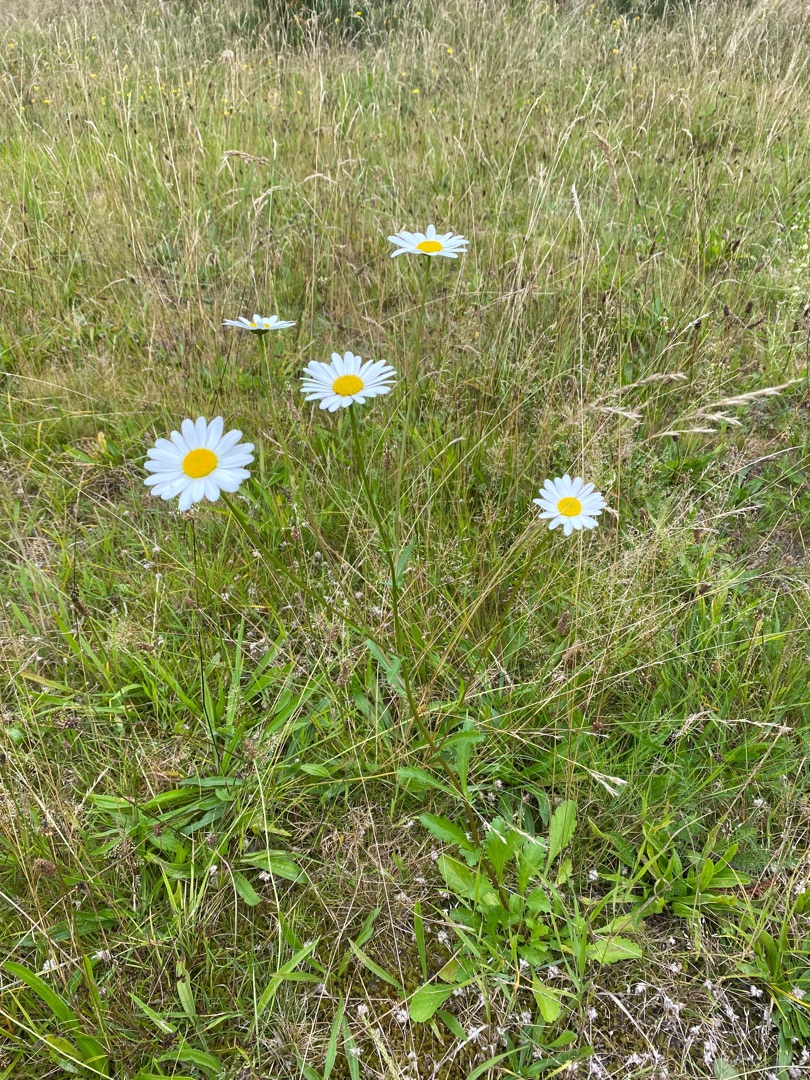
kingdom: Plantae
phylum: Tracheophyta
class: Magnoliopsida
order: Asterales
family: Asteraceae
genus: Leucanthemum
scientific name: Leucanthemum vulgare
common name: Hvid okseøje
